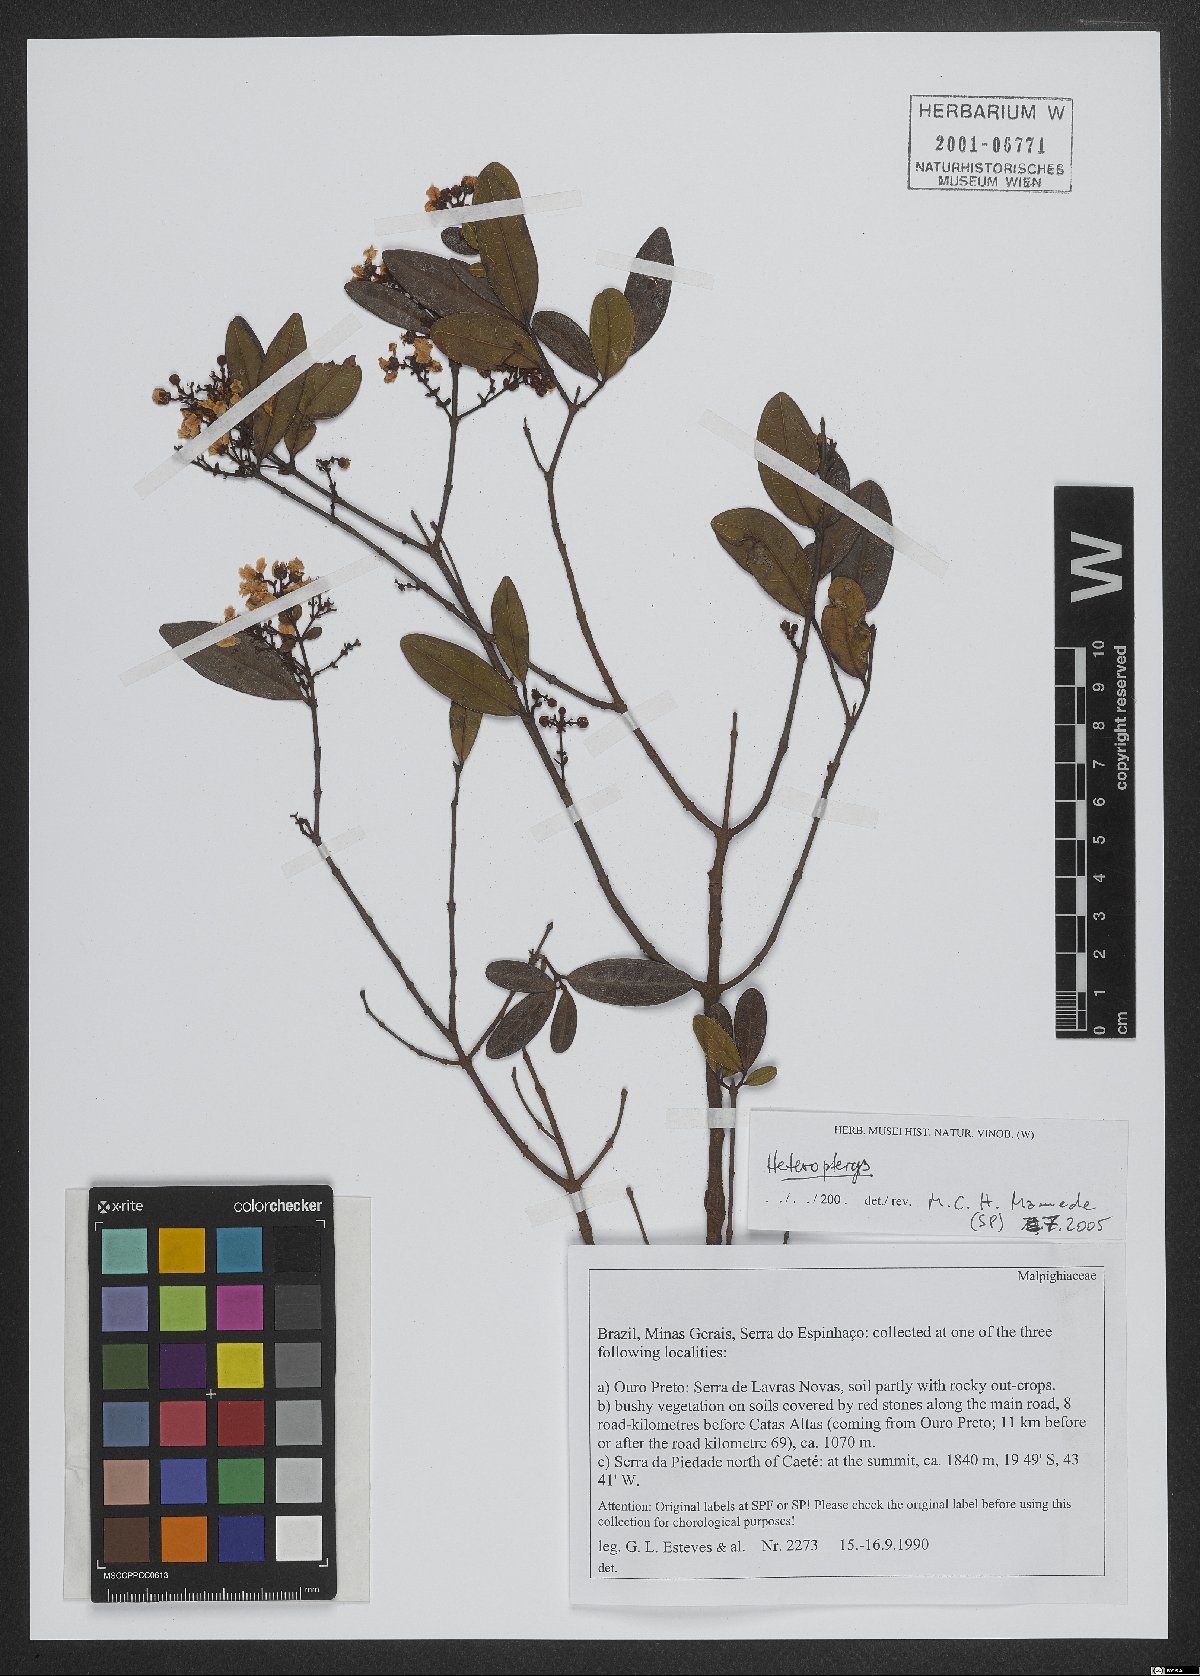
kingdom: Plantae
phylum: Tracheophyta
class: Magnoliopsida
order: Malpighiales
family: Malpighiaceae
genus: Heteropterys
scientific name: Heteropterys
